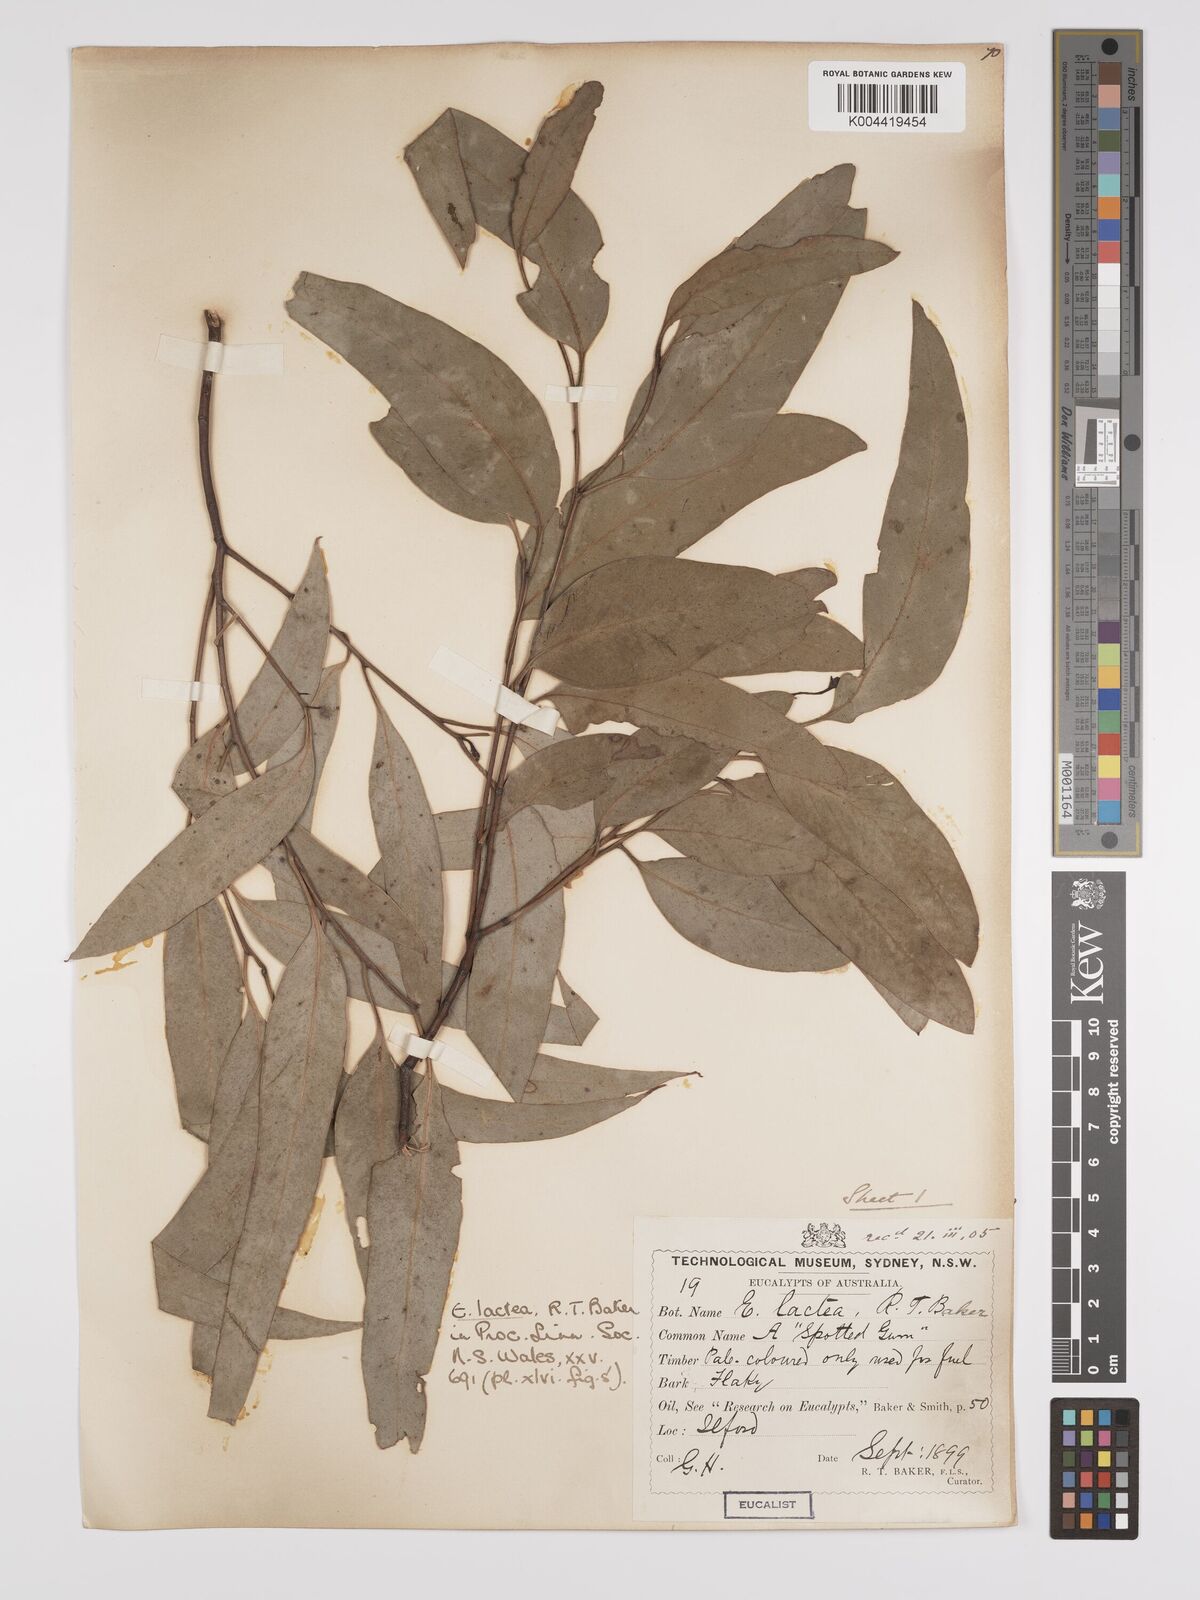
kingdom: Plantae
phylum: Tracheophyta
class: Magnoliopsida
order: Myrtales
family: Myrtaceae
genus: Eucalyptus
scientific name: Eucalyptus mannifera
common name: Manna gum
